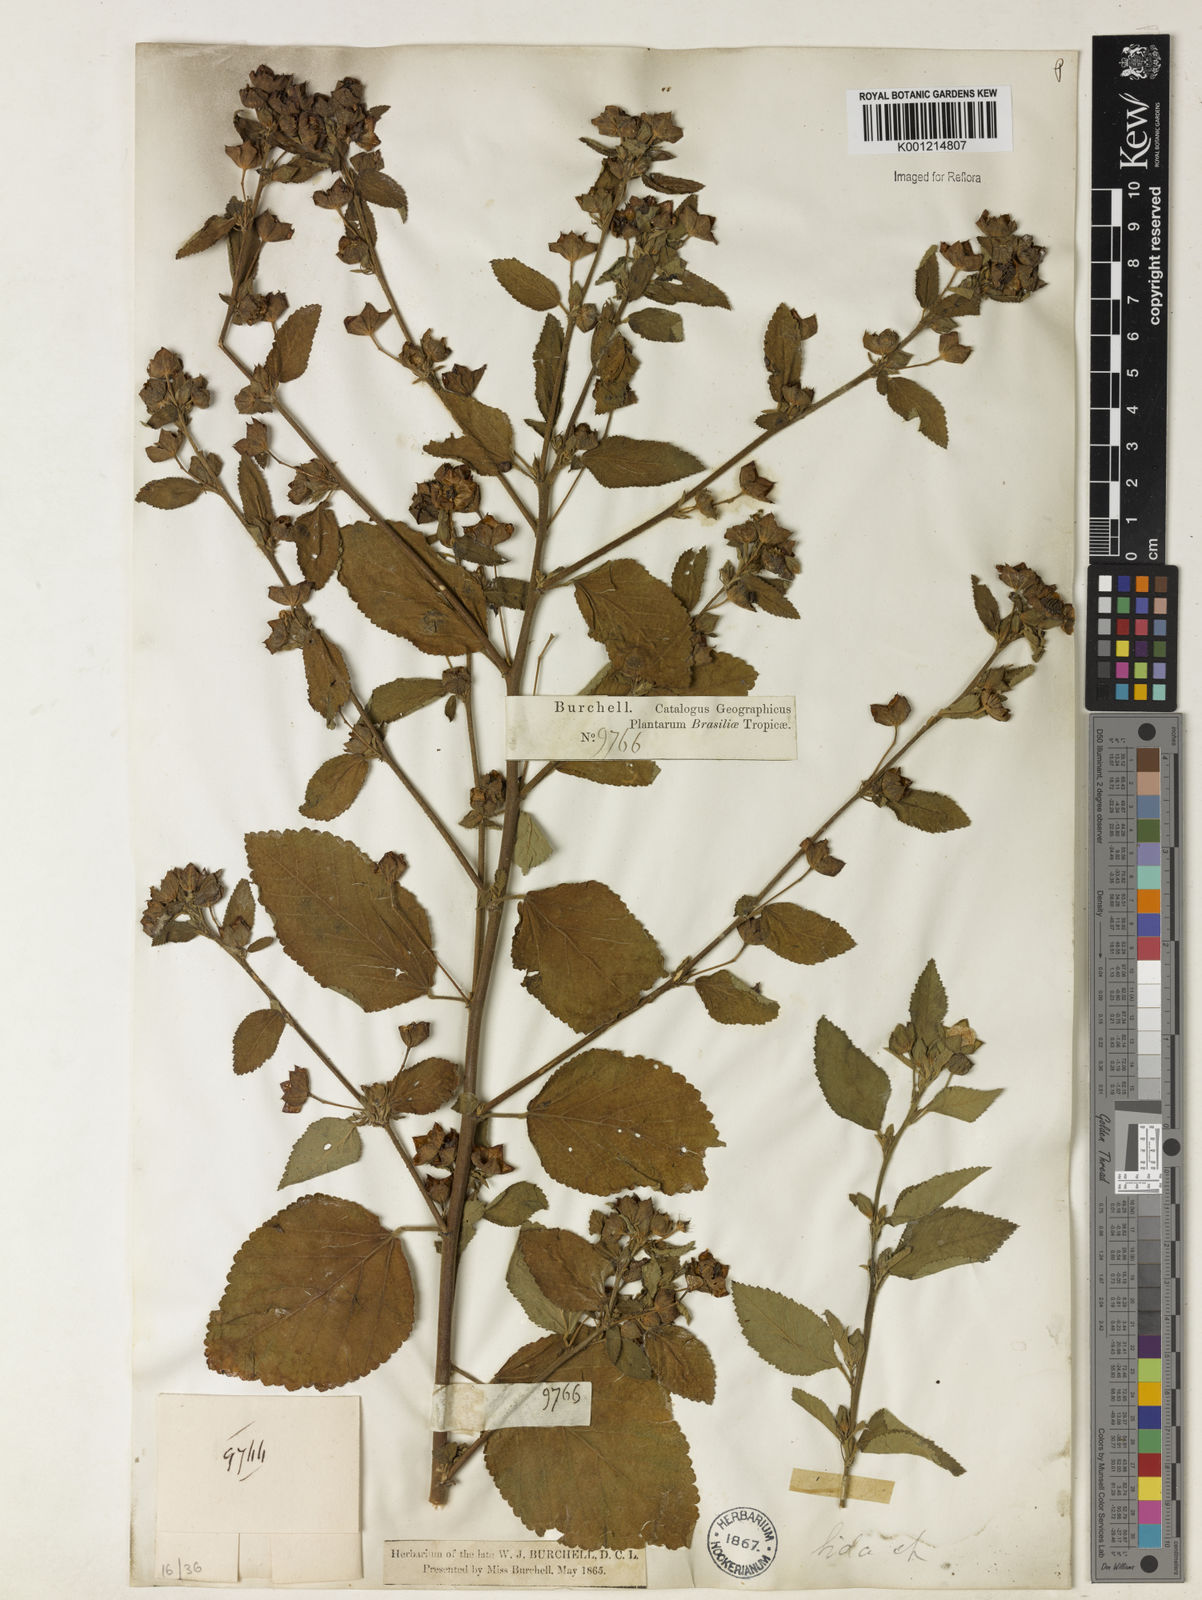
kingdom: Plantae
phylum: Tracheophyta
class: Magnoliopsida
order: Malvales
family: Malvaceae
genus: Sida
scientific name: Sida rhombifolia
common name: Queensland-hemp
